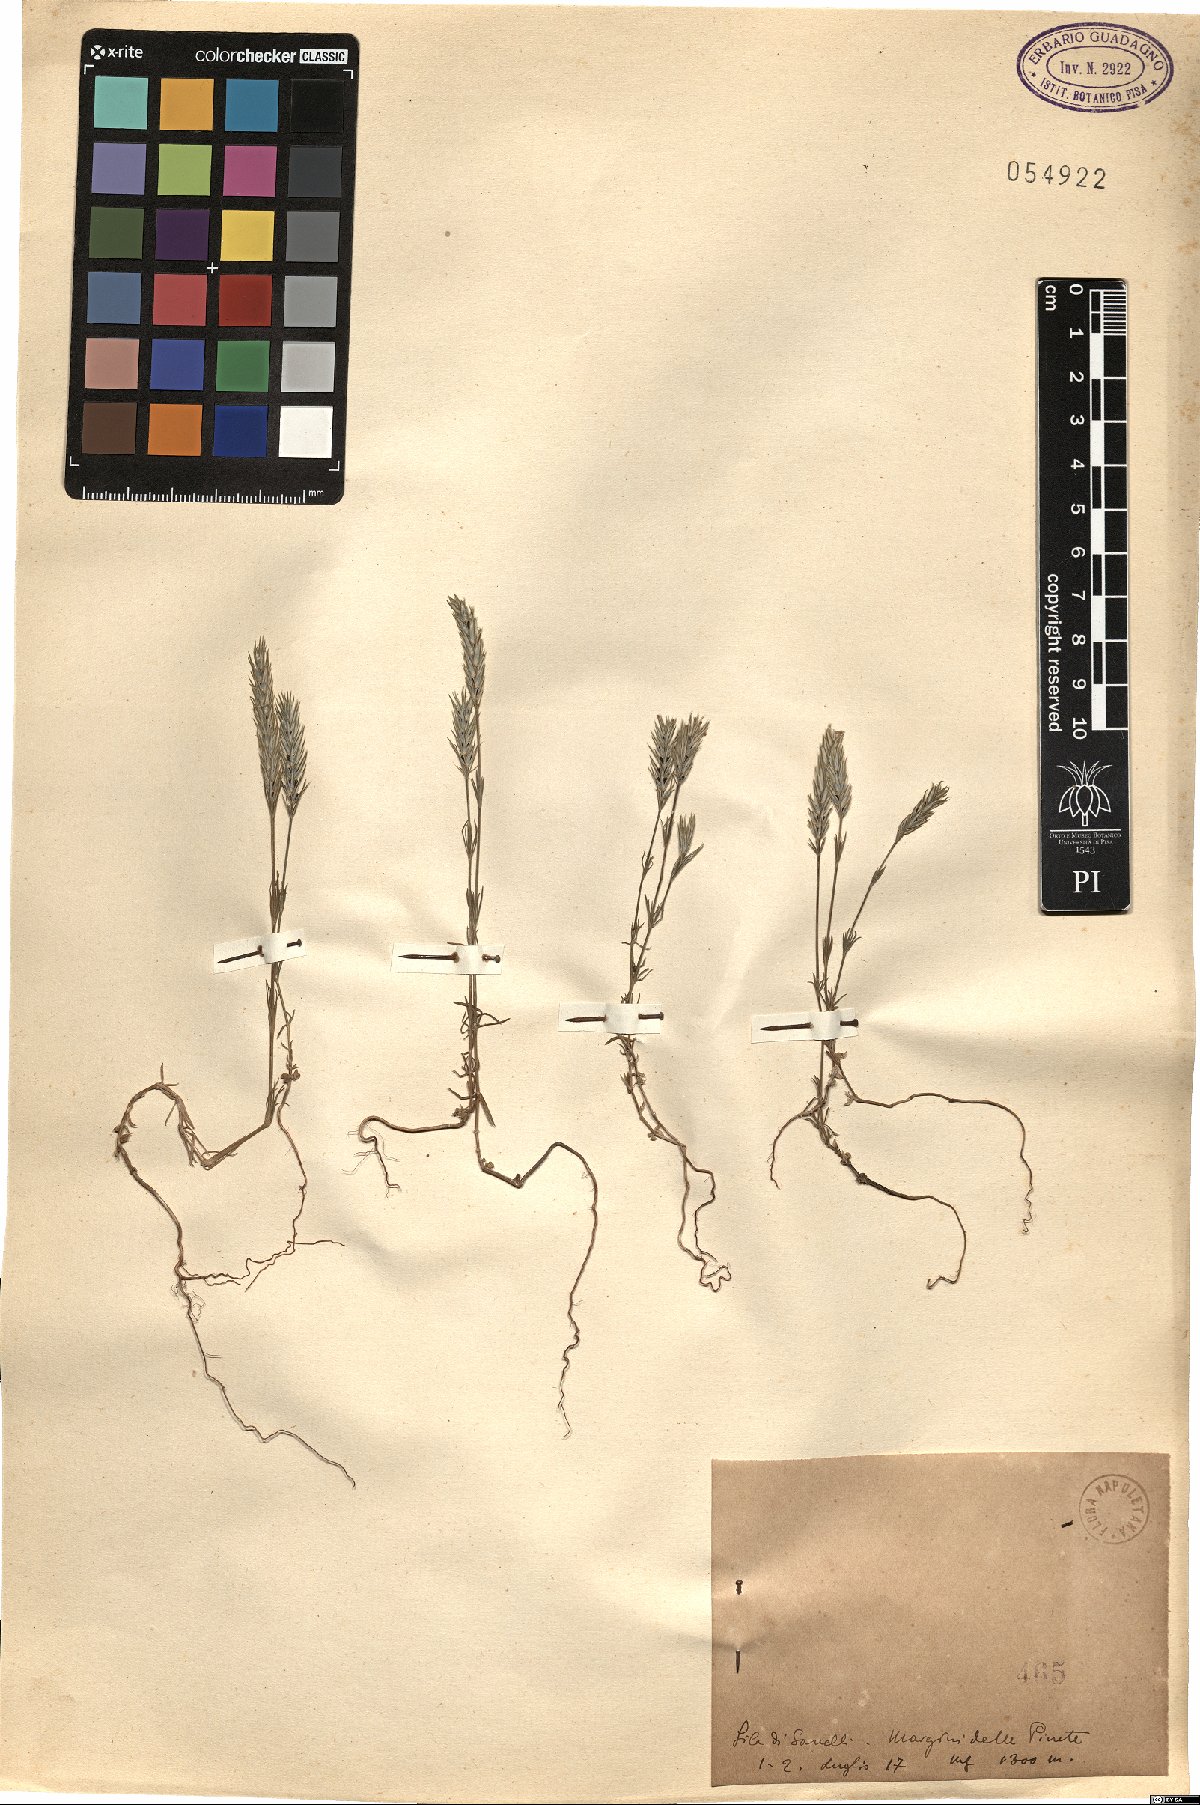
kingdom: Plantae
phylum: Tracheophyta
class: Magnoliopsida
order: Gentianales
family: Rubiaceae
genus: Crucianella
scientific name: Crucianella
